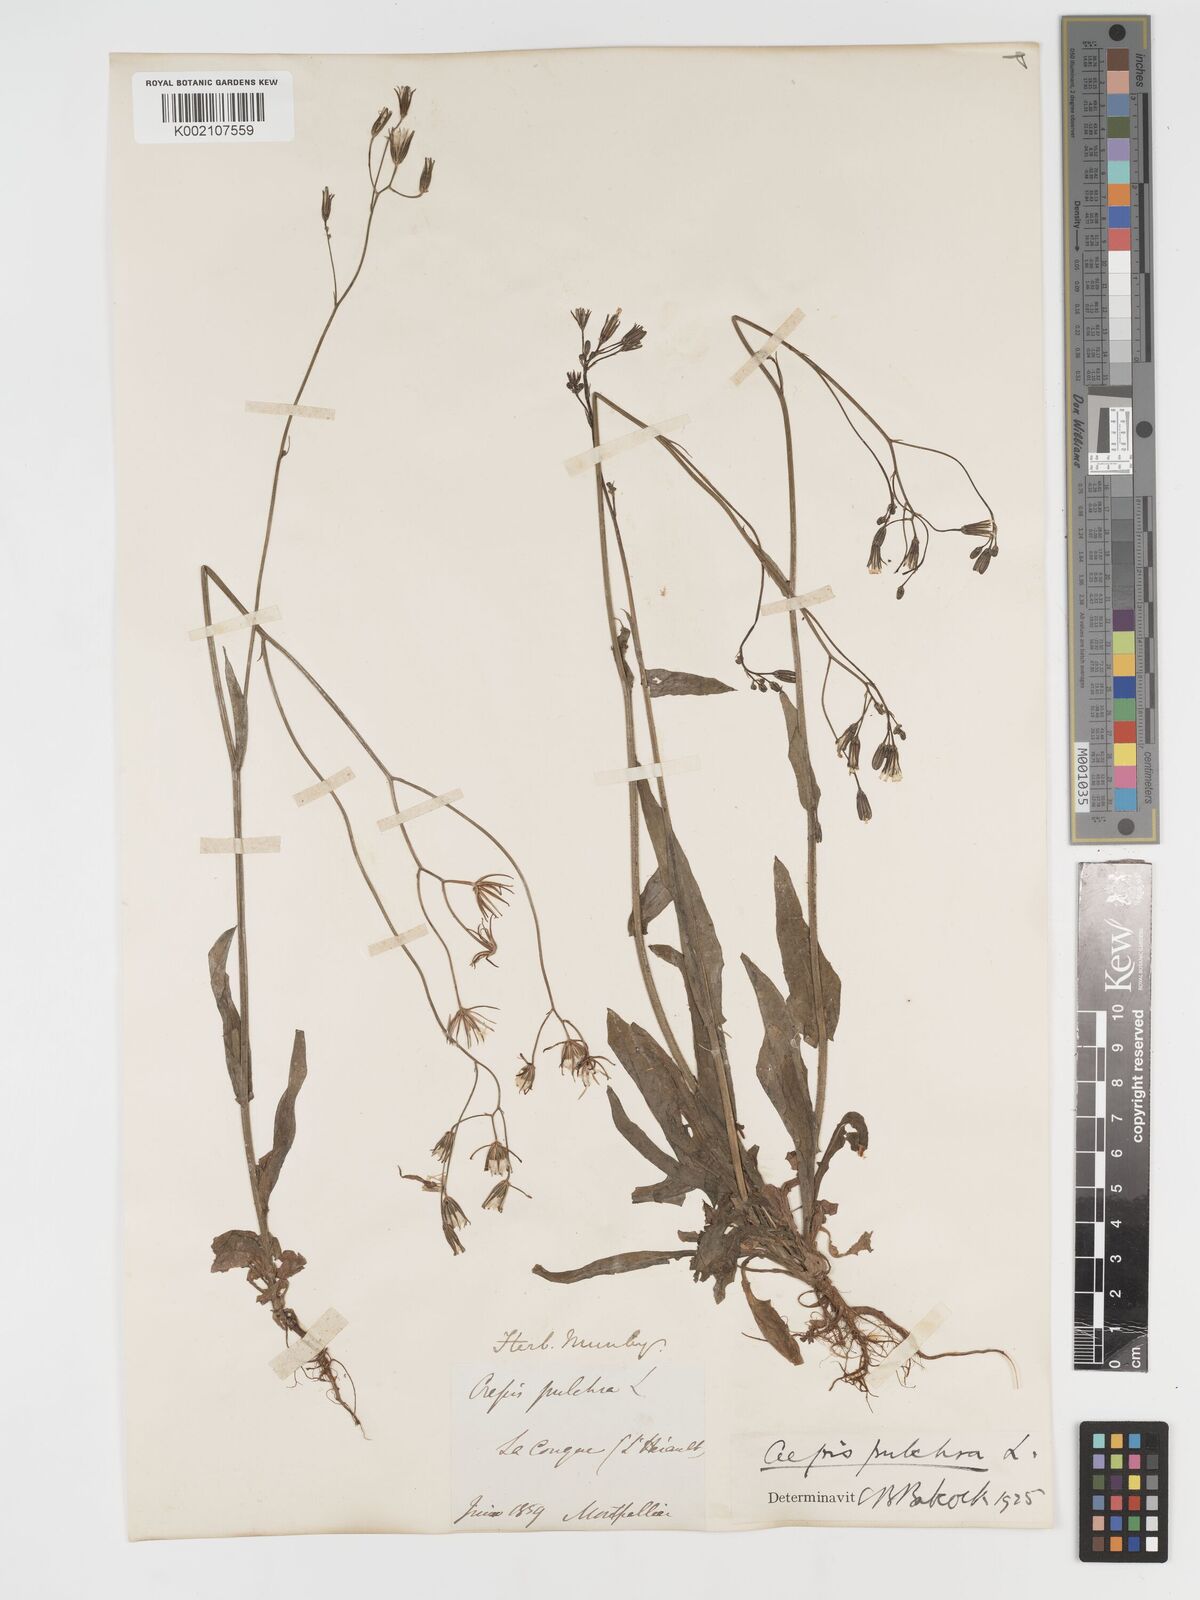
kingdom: Plantae
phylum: Tracheophyta
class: Magnoliopsida
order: Asterales
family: Asteraceae
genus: Crepis
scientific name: Crepis pulchra
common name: Hawk's-beard
